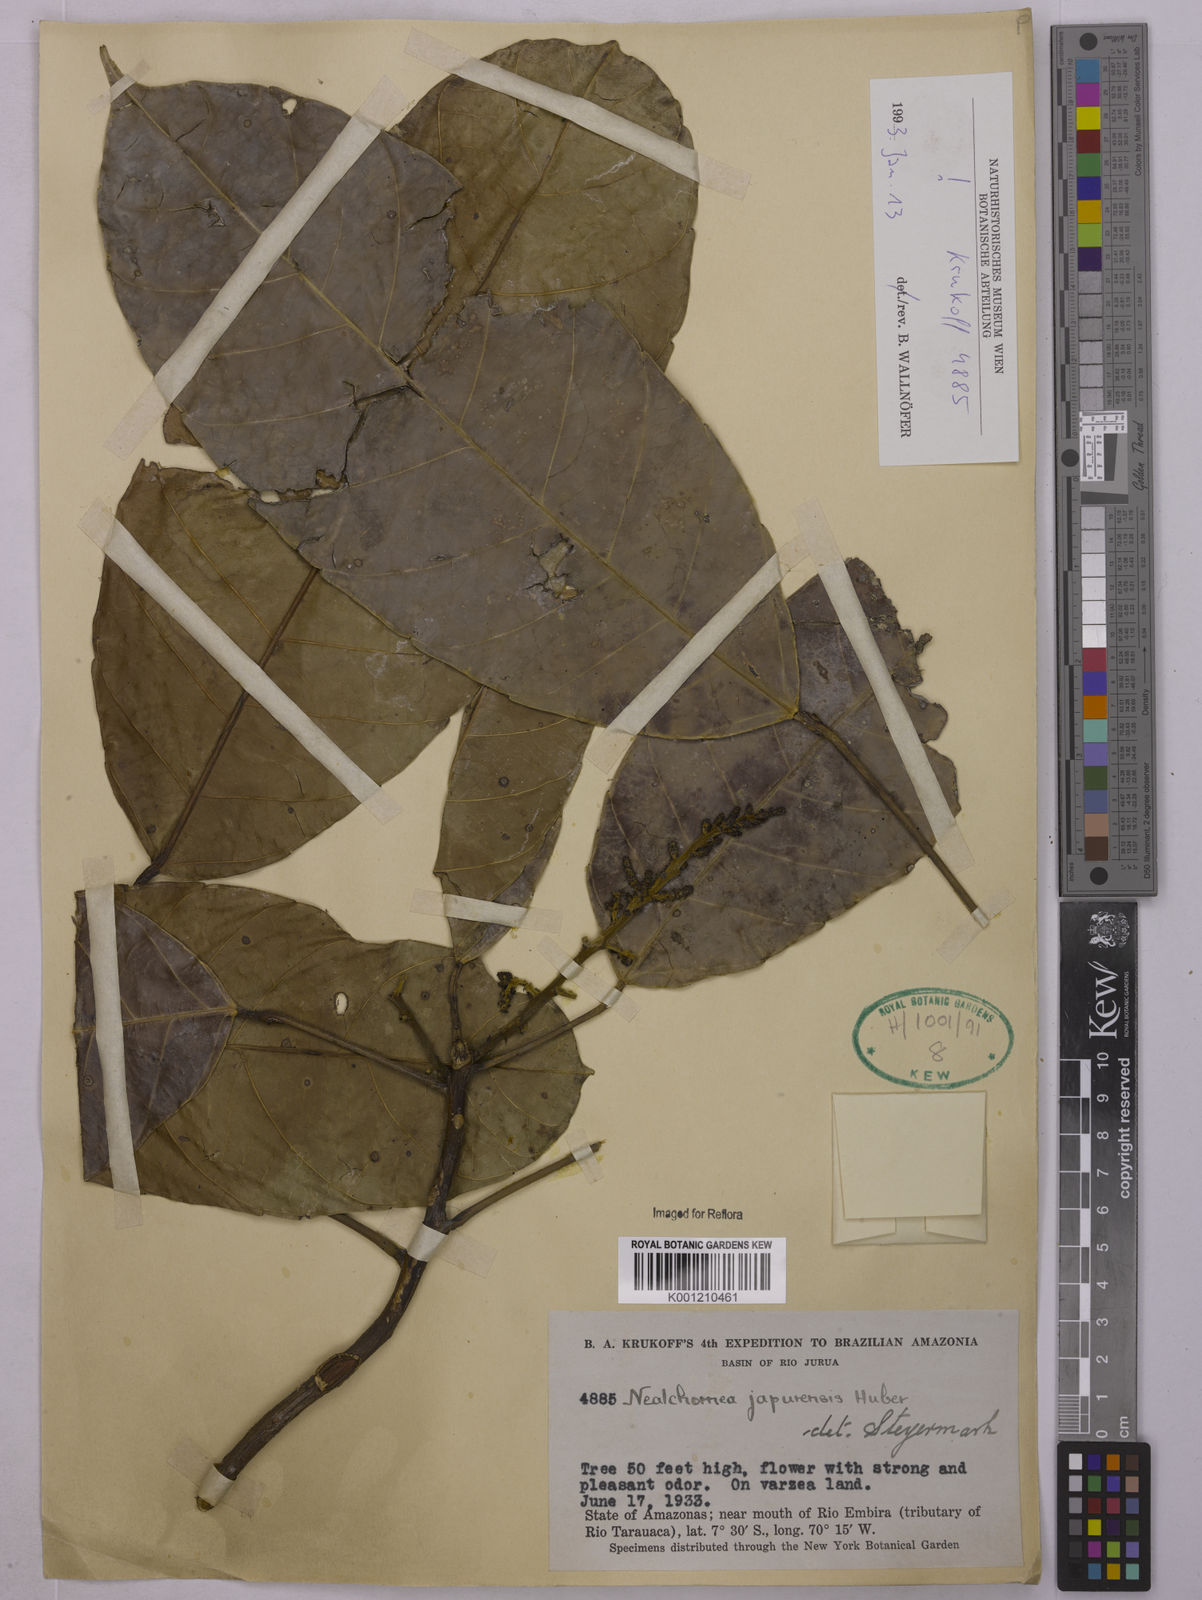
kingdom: Plantae
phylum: Tracheophyta
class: Magnoliopsida
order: Malpighiales
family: Euphorbiaceae
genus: Nealchornea
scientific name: Nealchornea yapurensis
